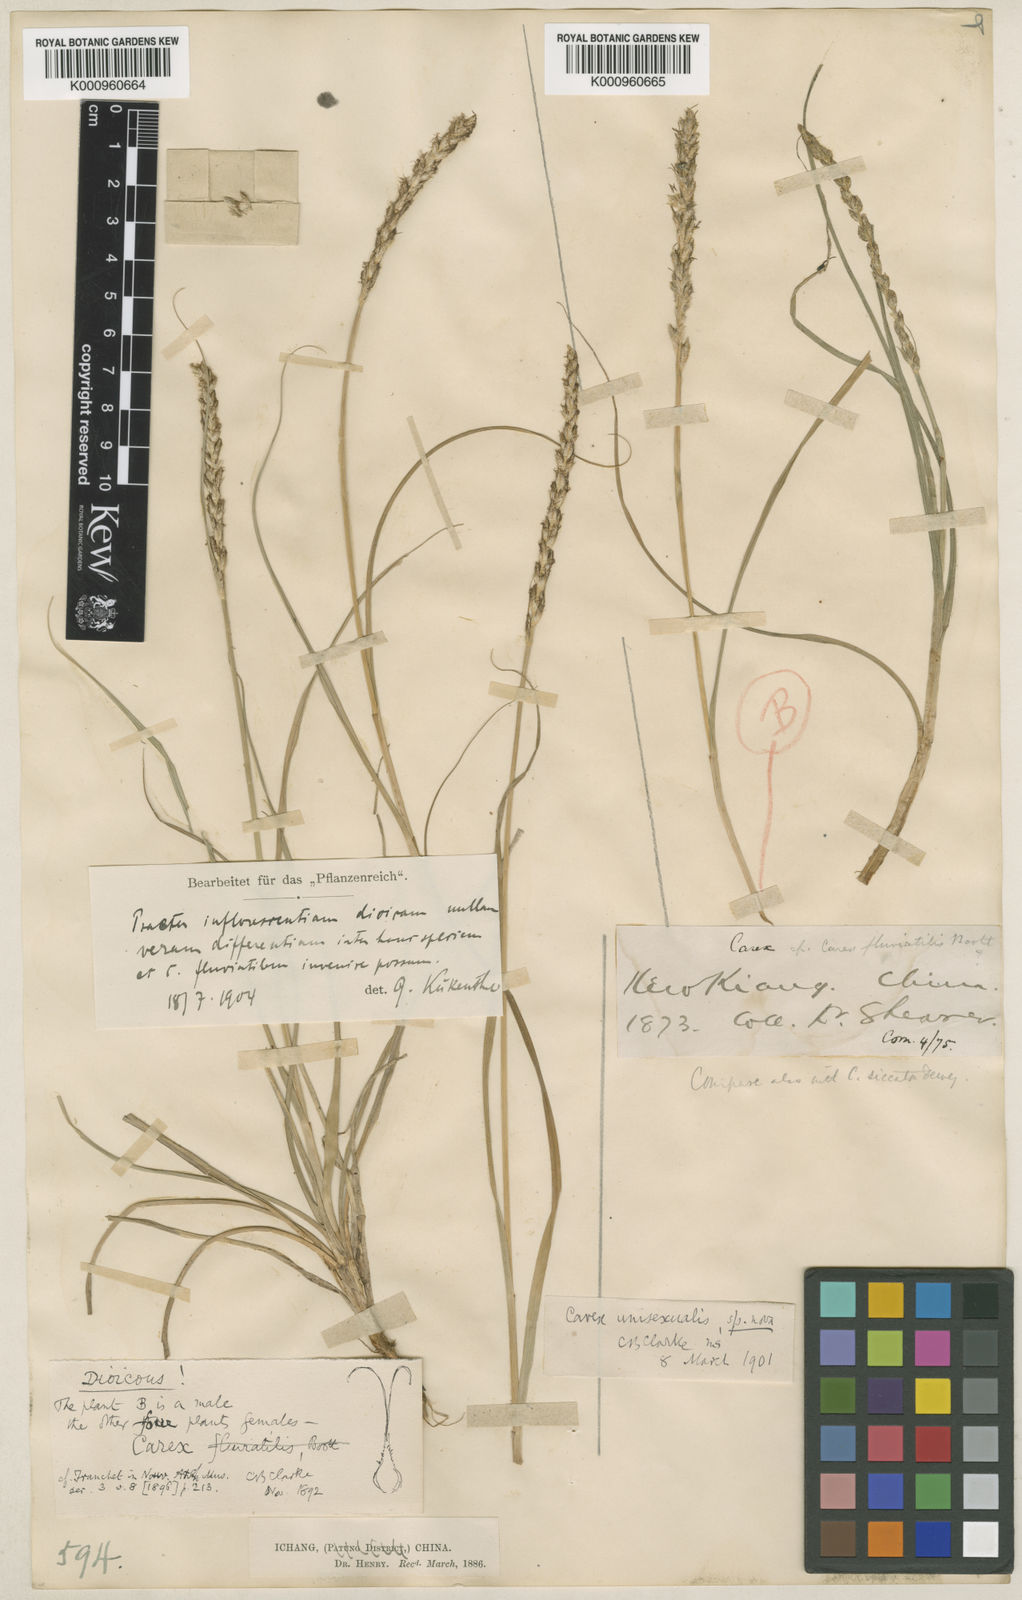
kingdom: Plantae
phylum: Tracheophyta
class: Liliopsida
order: Poales
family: Cyperaceae
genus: Carex
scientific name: Carex fluviatilis
